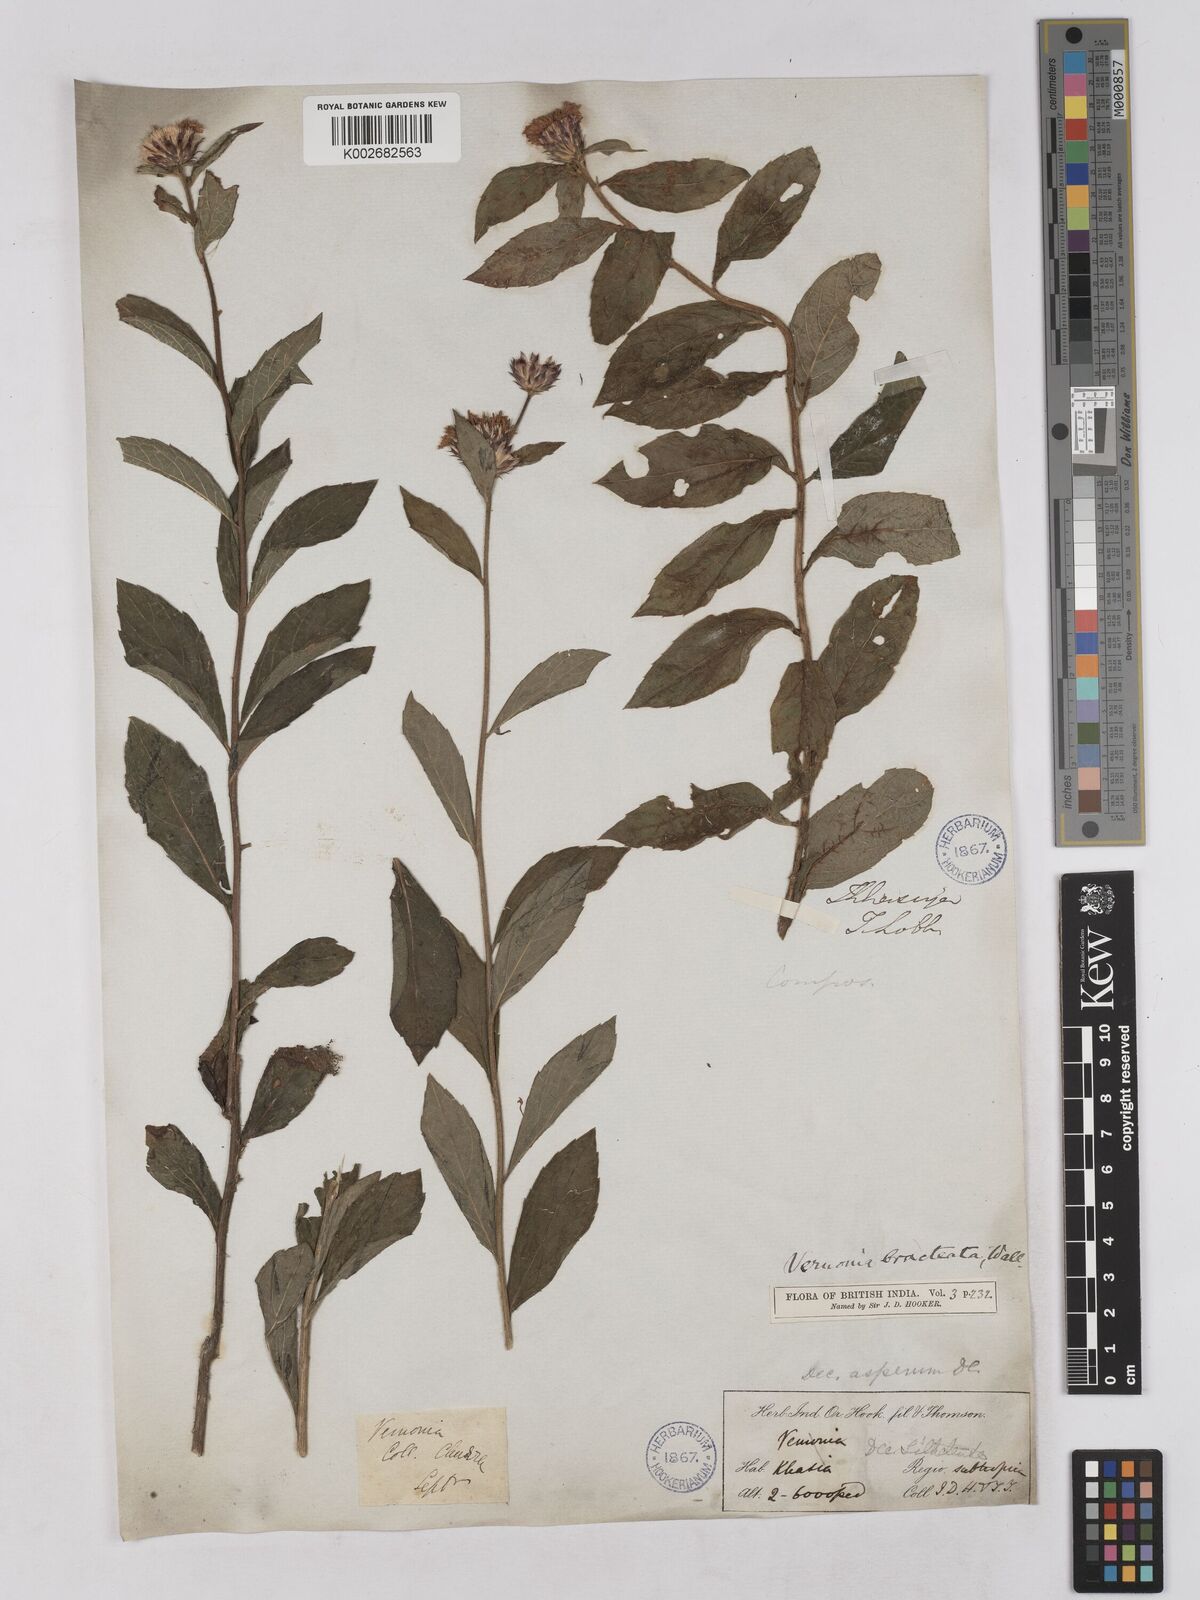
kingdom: Plantae
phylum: Tracheophyta
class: Magnoliopsida
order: Asterales
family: Asteraceae
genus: Acilepis
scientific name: Acilepis silhetensis
